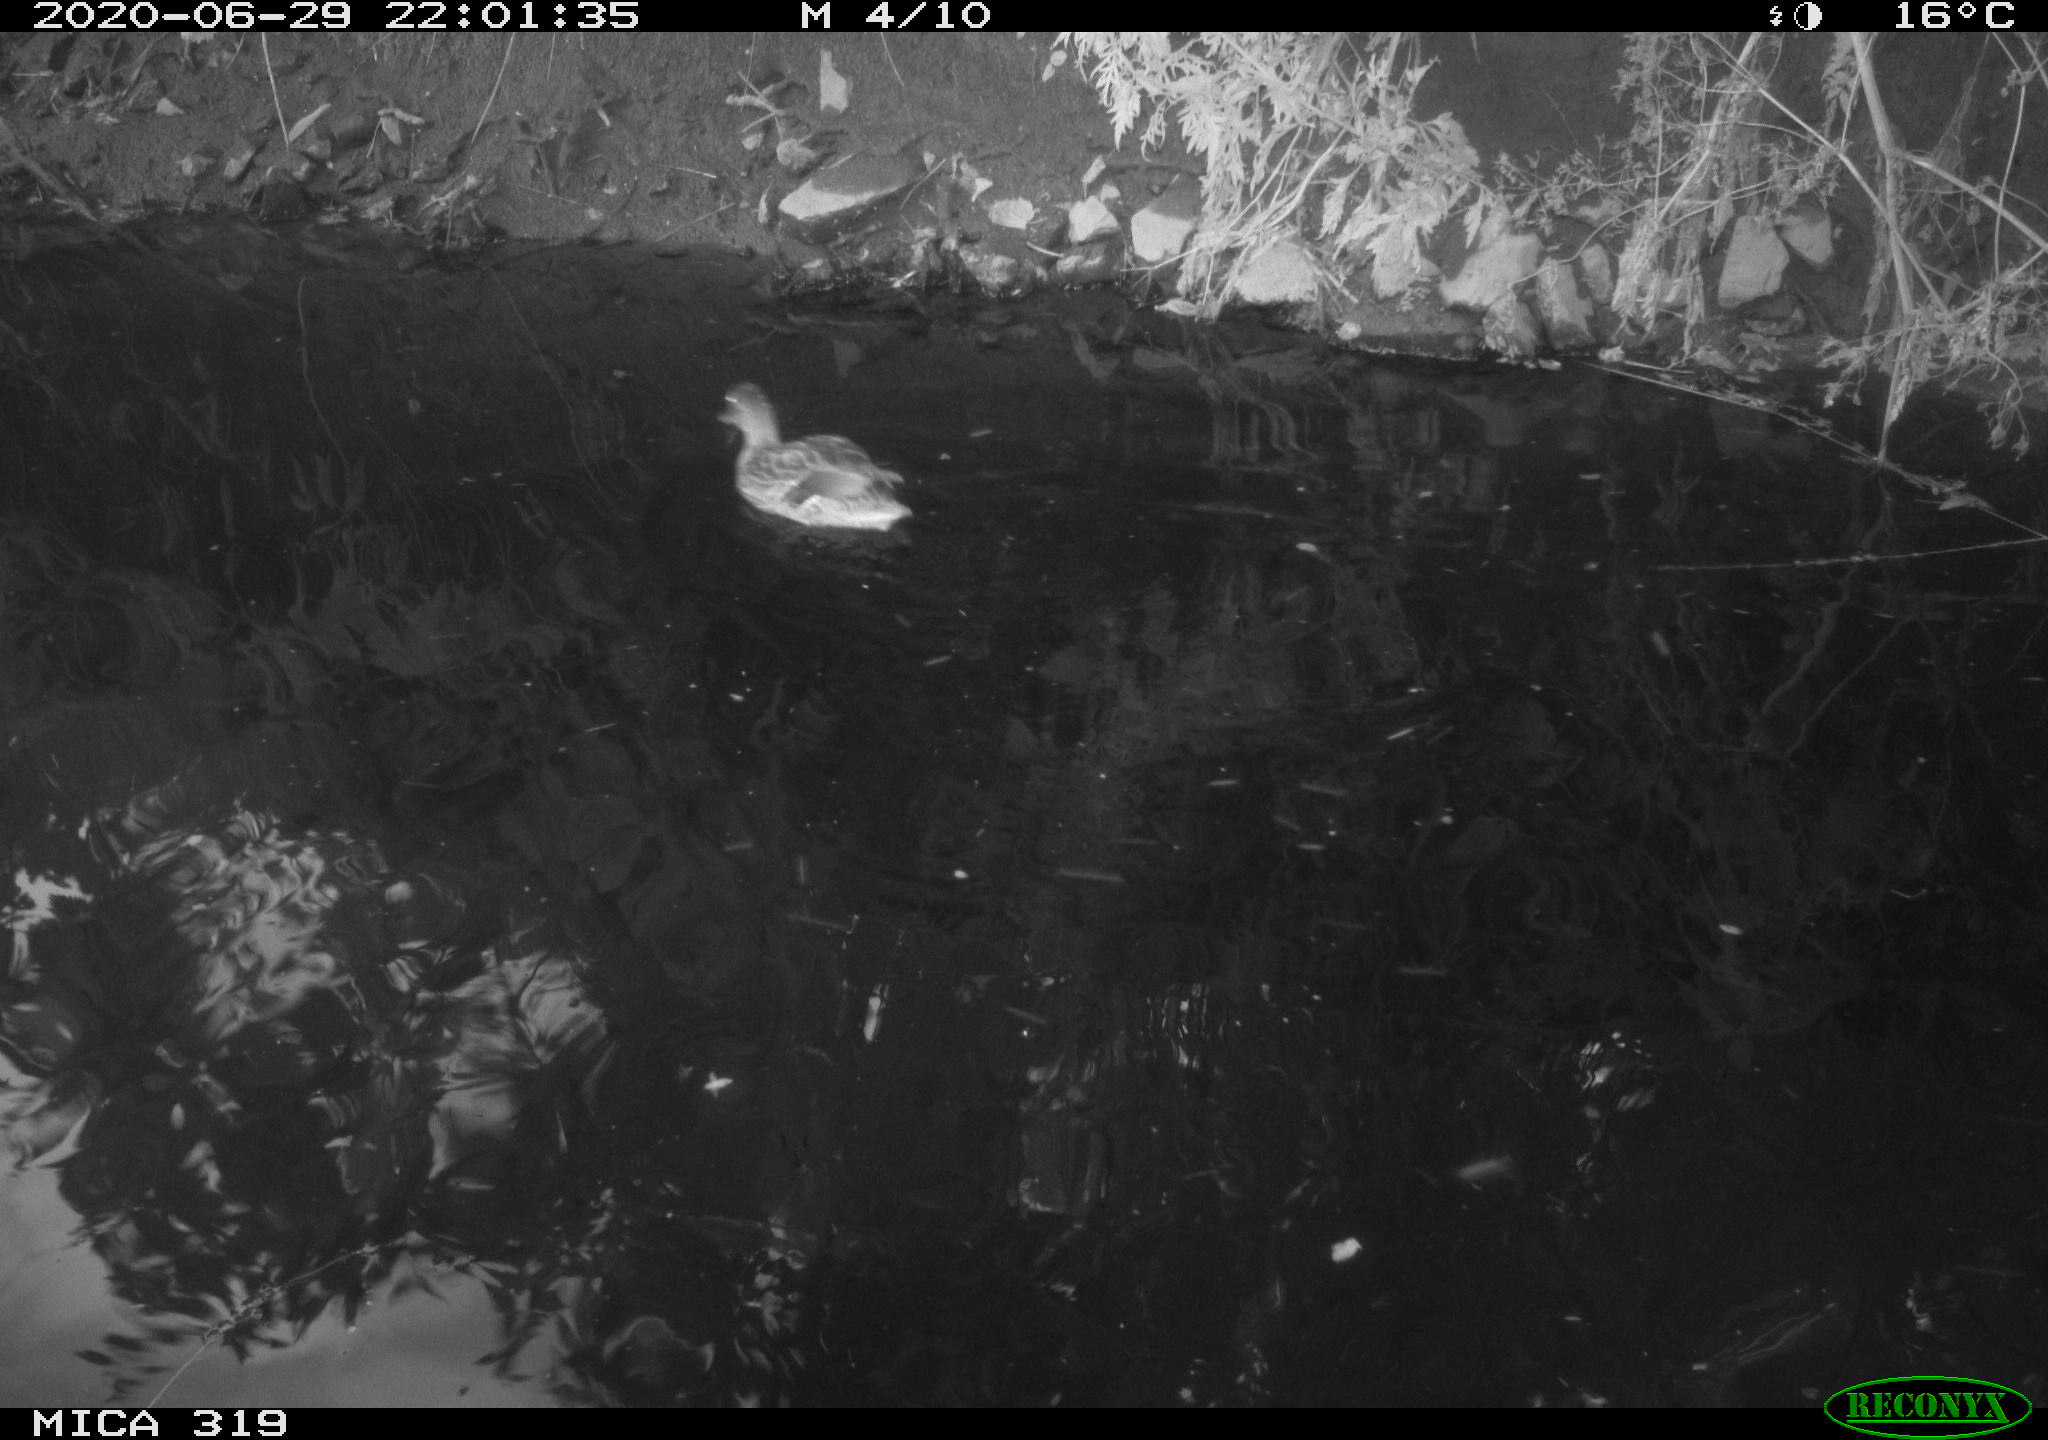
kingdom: Animalia
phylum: Chordata
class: Aves
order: Anseriformes
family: Anatidae
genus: Anas
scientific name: Anas platyrhynchos
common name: Mallard
